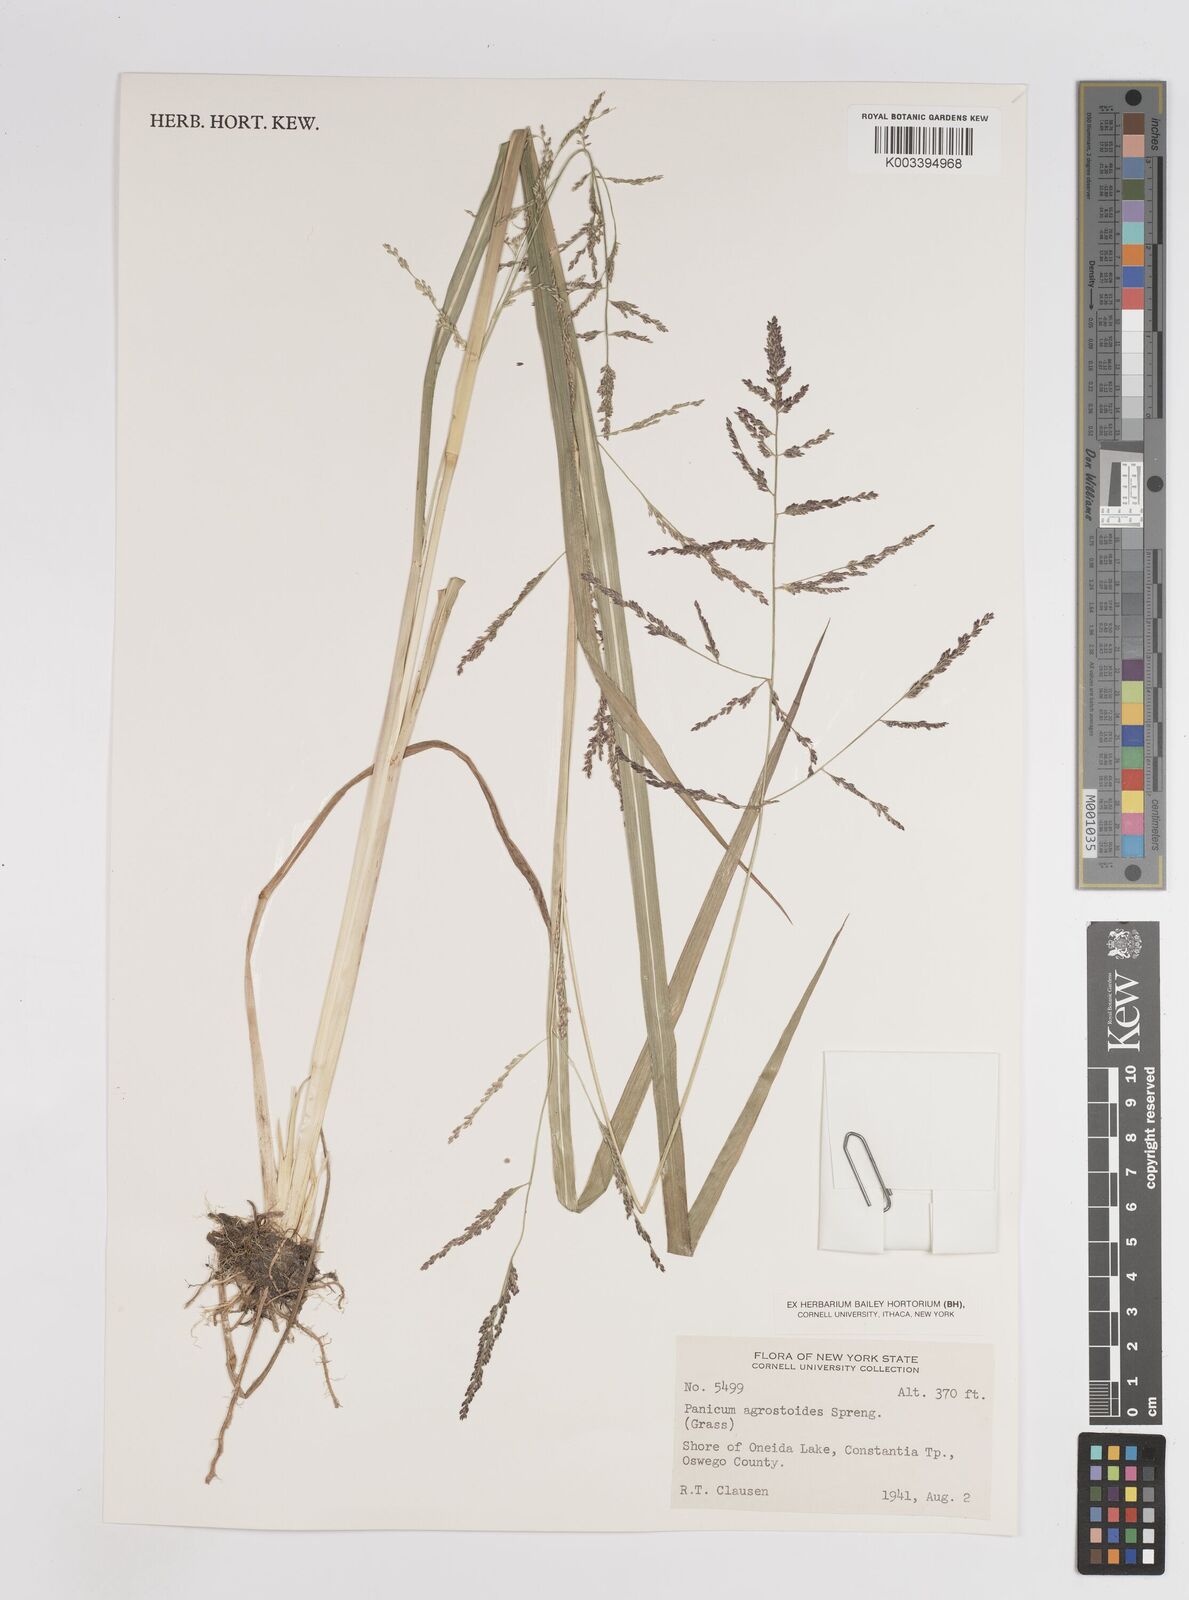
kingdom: Plantae
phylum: Tracheophyta
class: Liliopsida
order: Poales
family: Poaceae
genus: Steinchisma
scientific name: Steinchisma laxum
